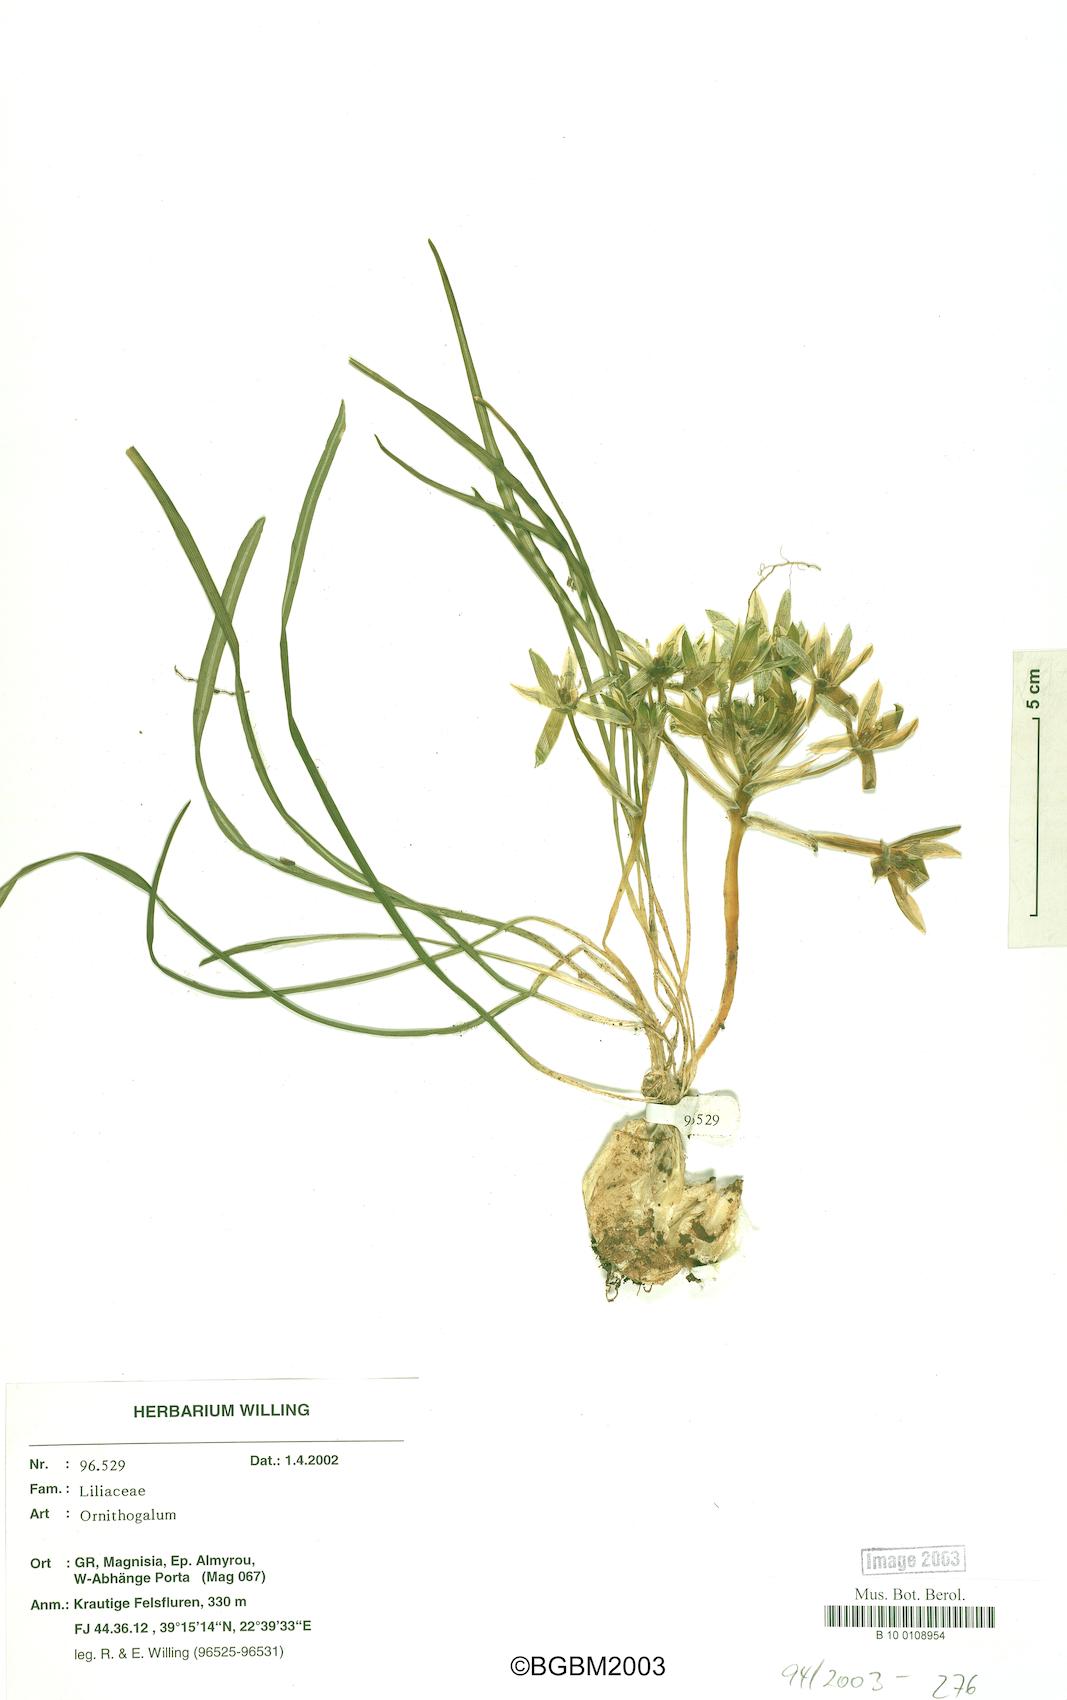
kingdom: Plantae
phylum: Tracheophyta
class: Liliopsida
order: Asparagales
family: Asparagaceae
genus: Ornithogalum
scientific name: Ornithogalum
